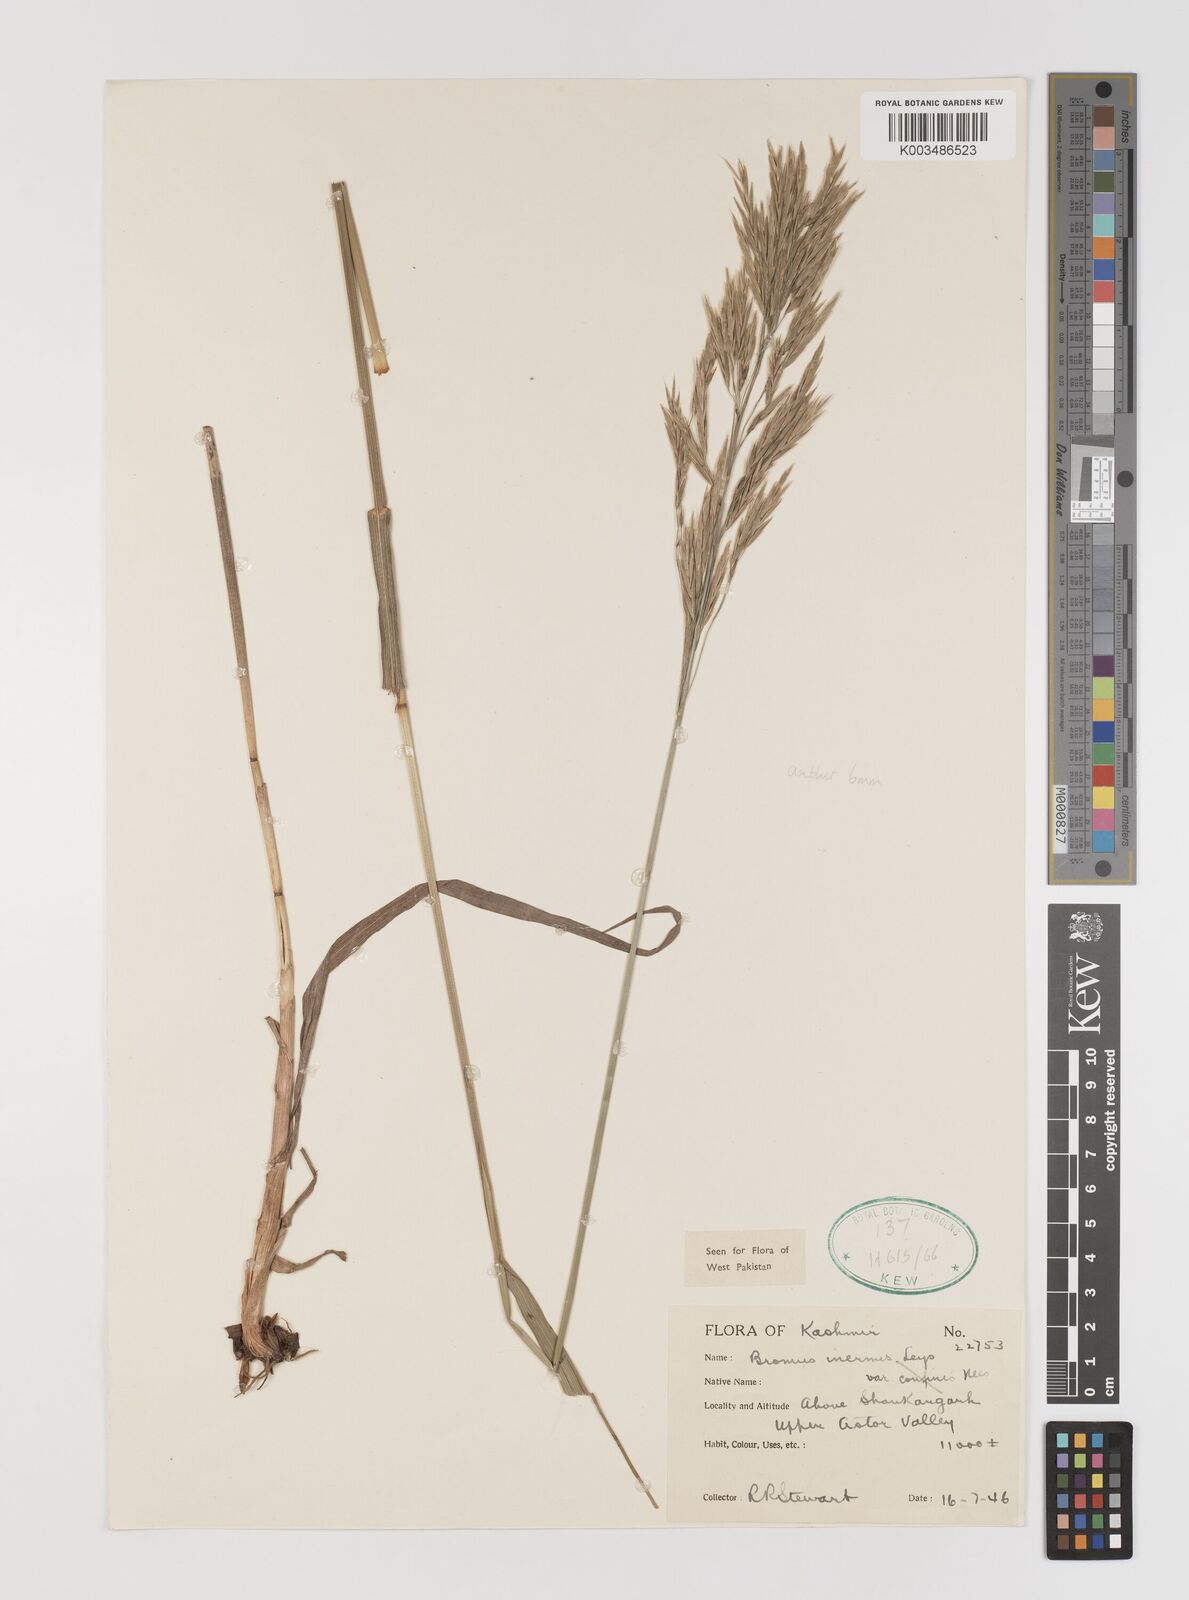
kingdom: Plantae
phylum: Tracheophyta
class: Liliopsida
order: Poales
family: Poaceae
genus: Bromus
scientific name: Bromus inermis
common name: Smooth brome
